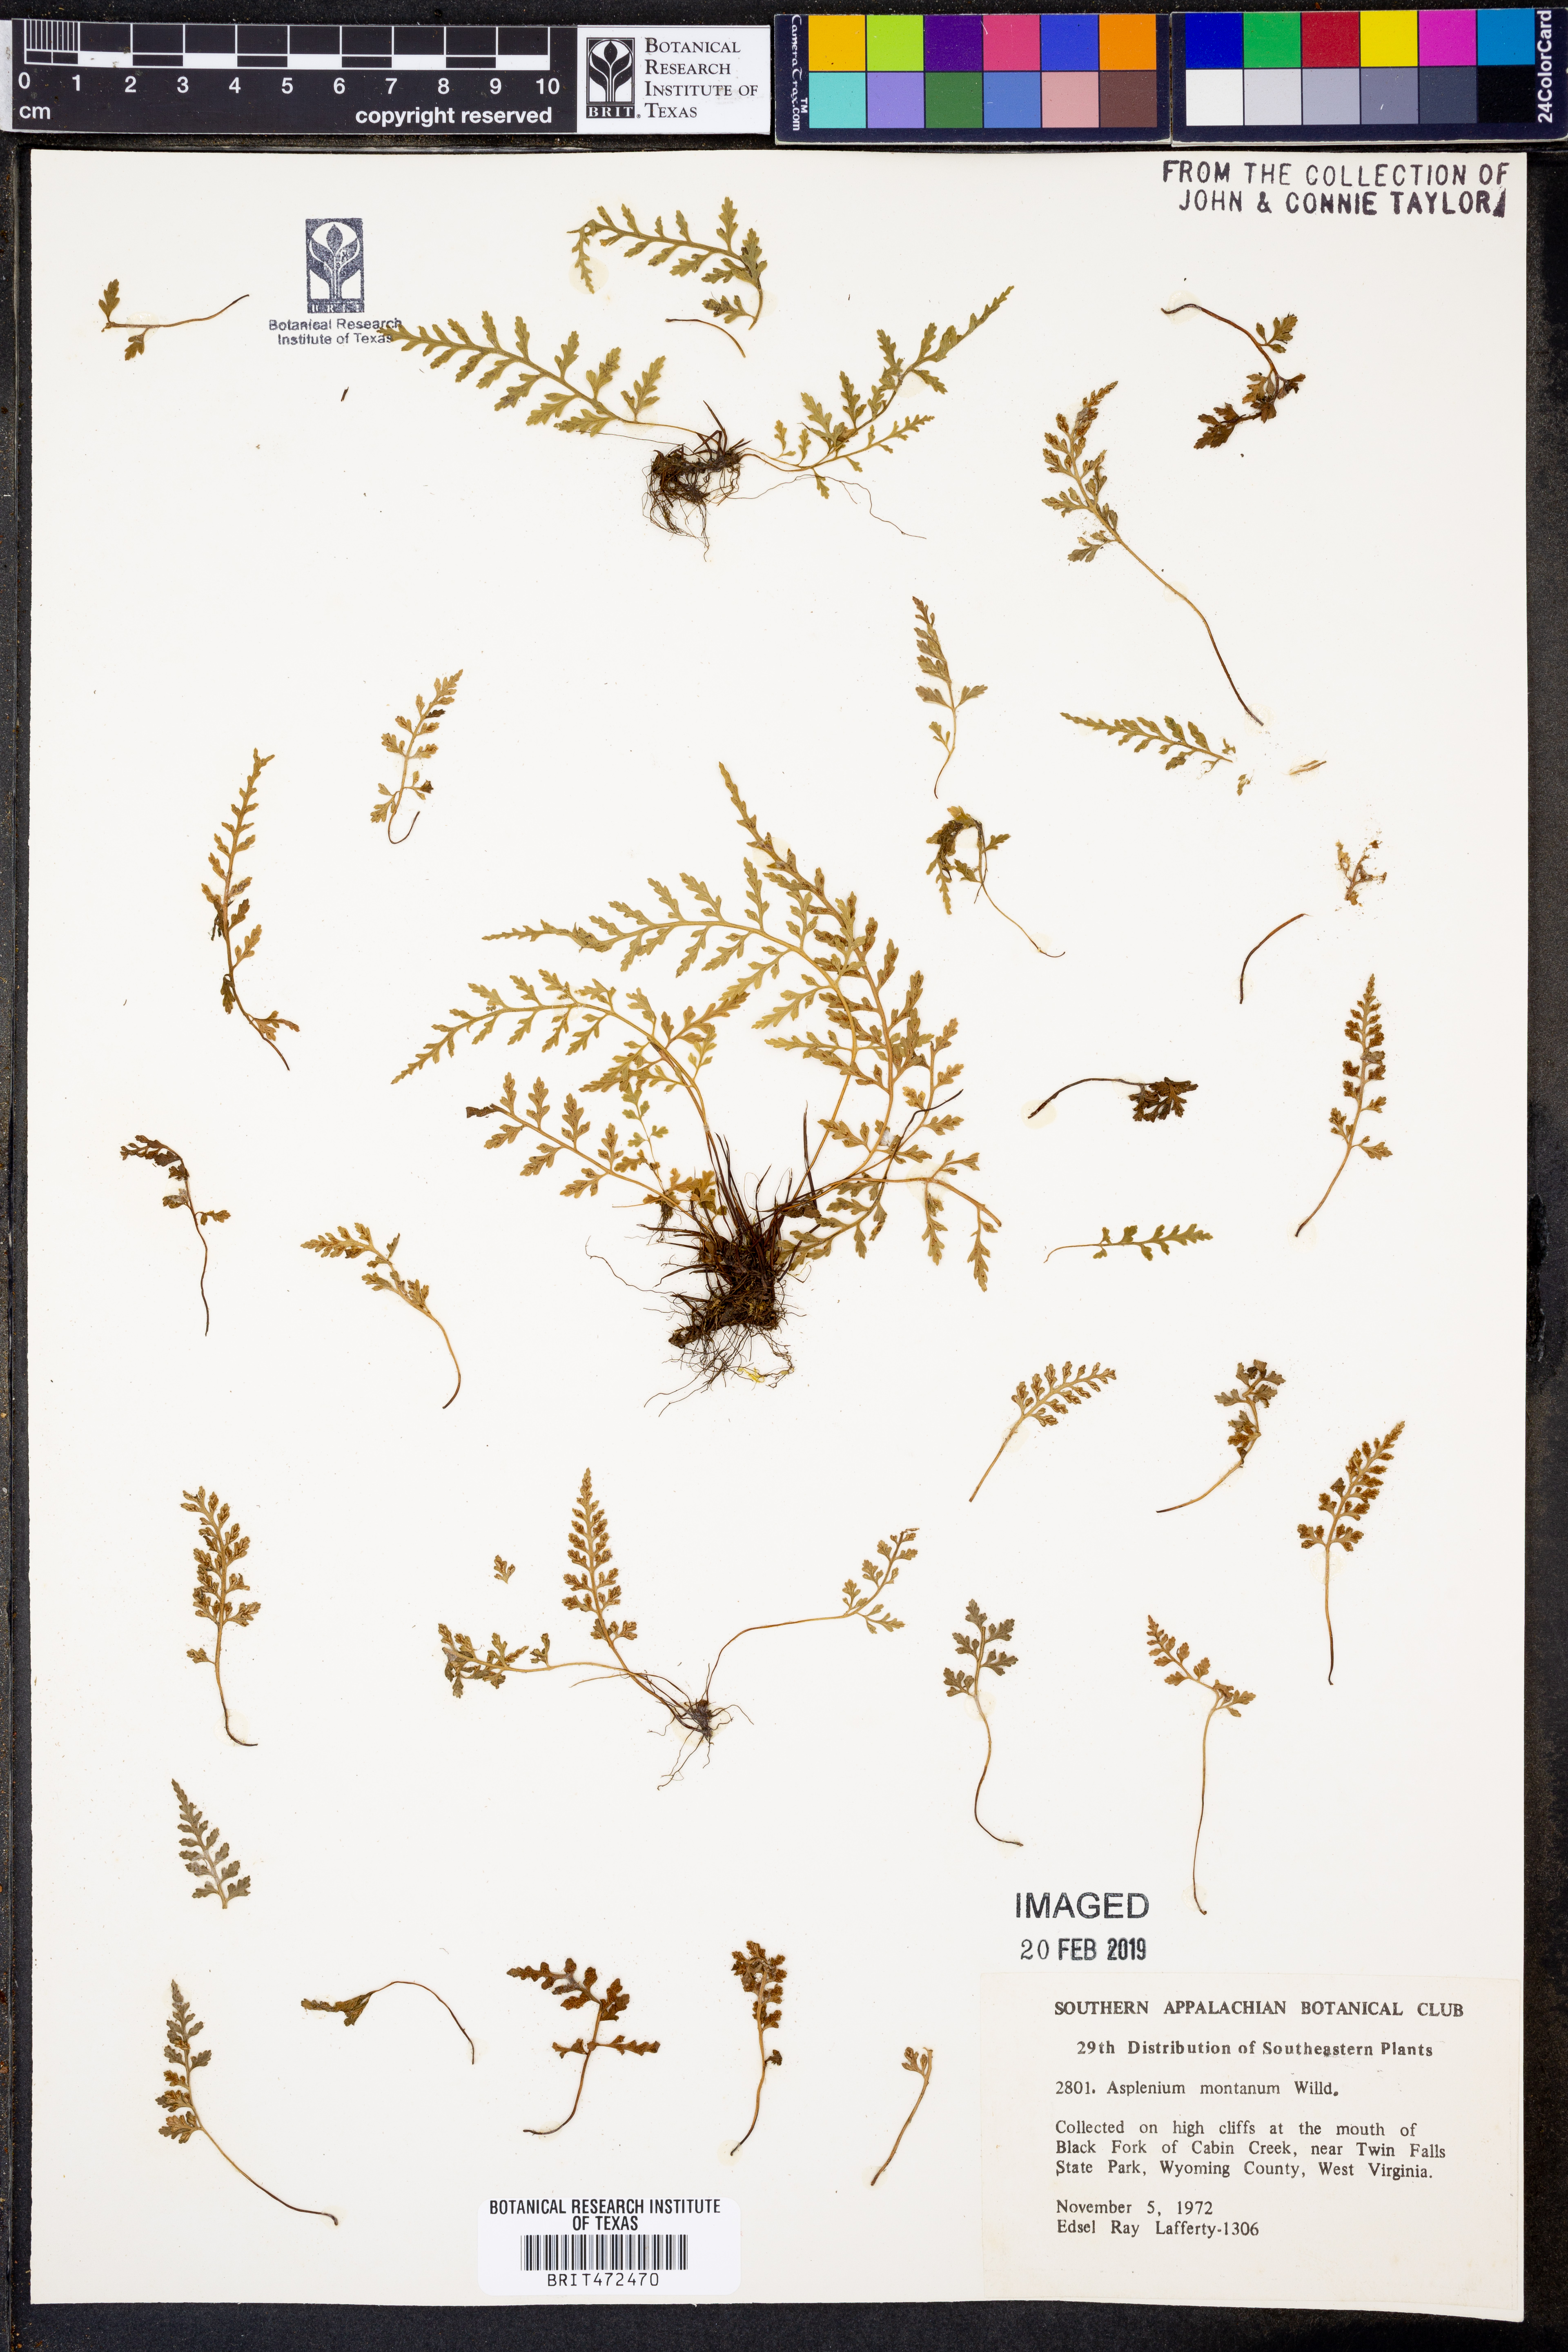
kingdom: Plantae
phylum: Tracheophyta
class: Polypodiopsida
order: Polypodiales
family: Aspleniaceae
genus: Asplenium
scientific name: Asplenium montanum
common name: Mountain spleenwort
